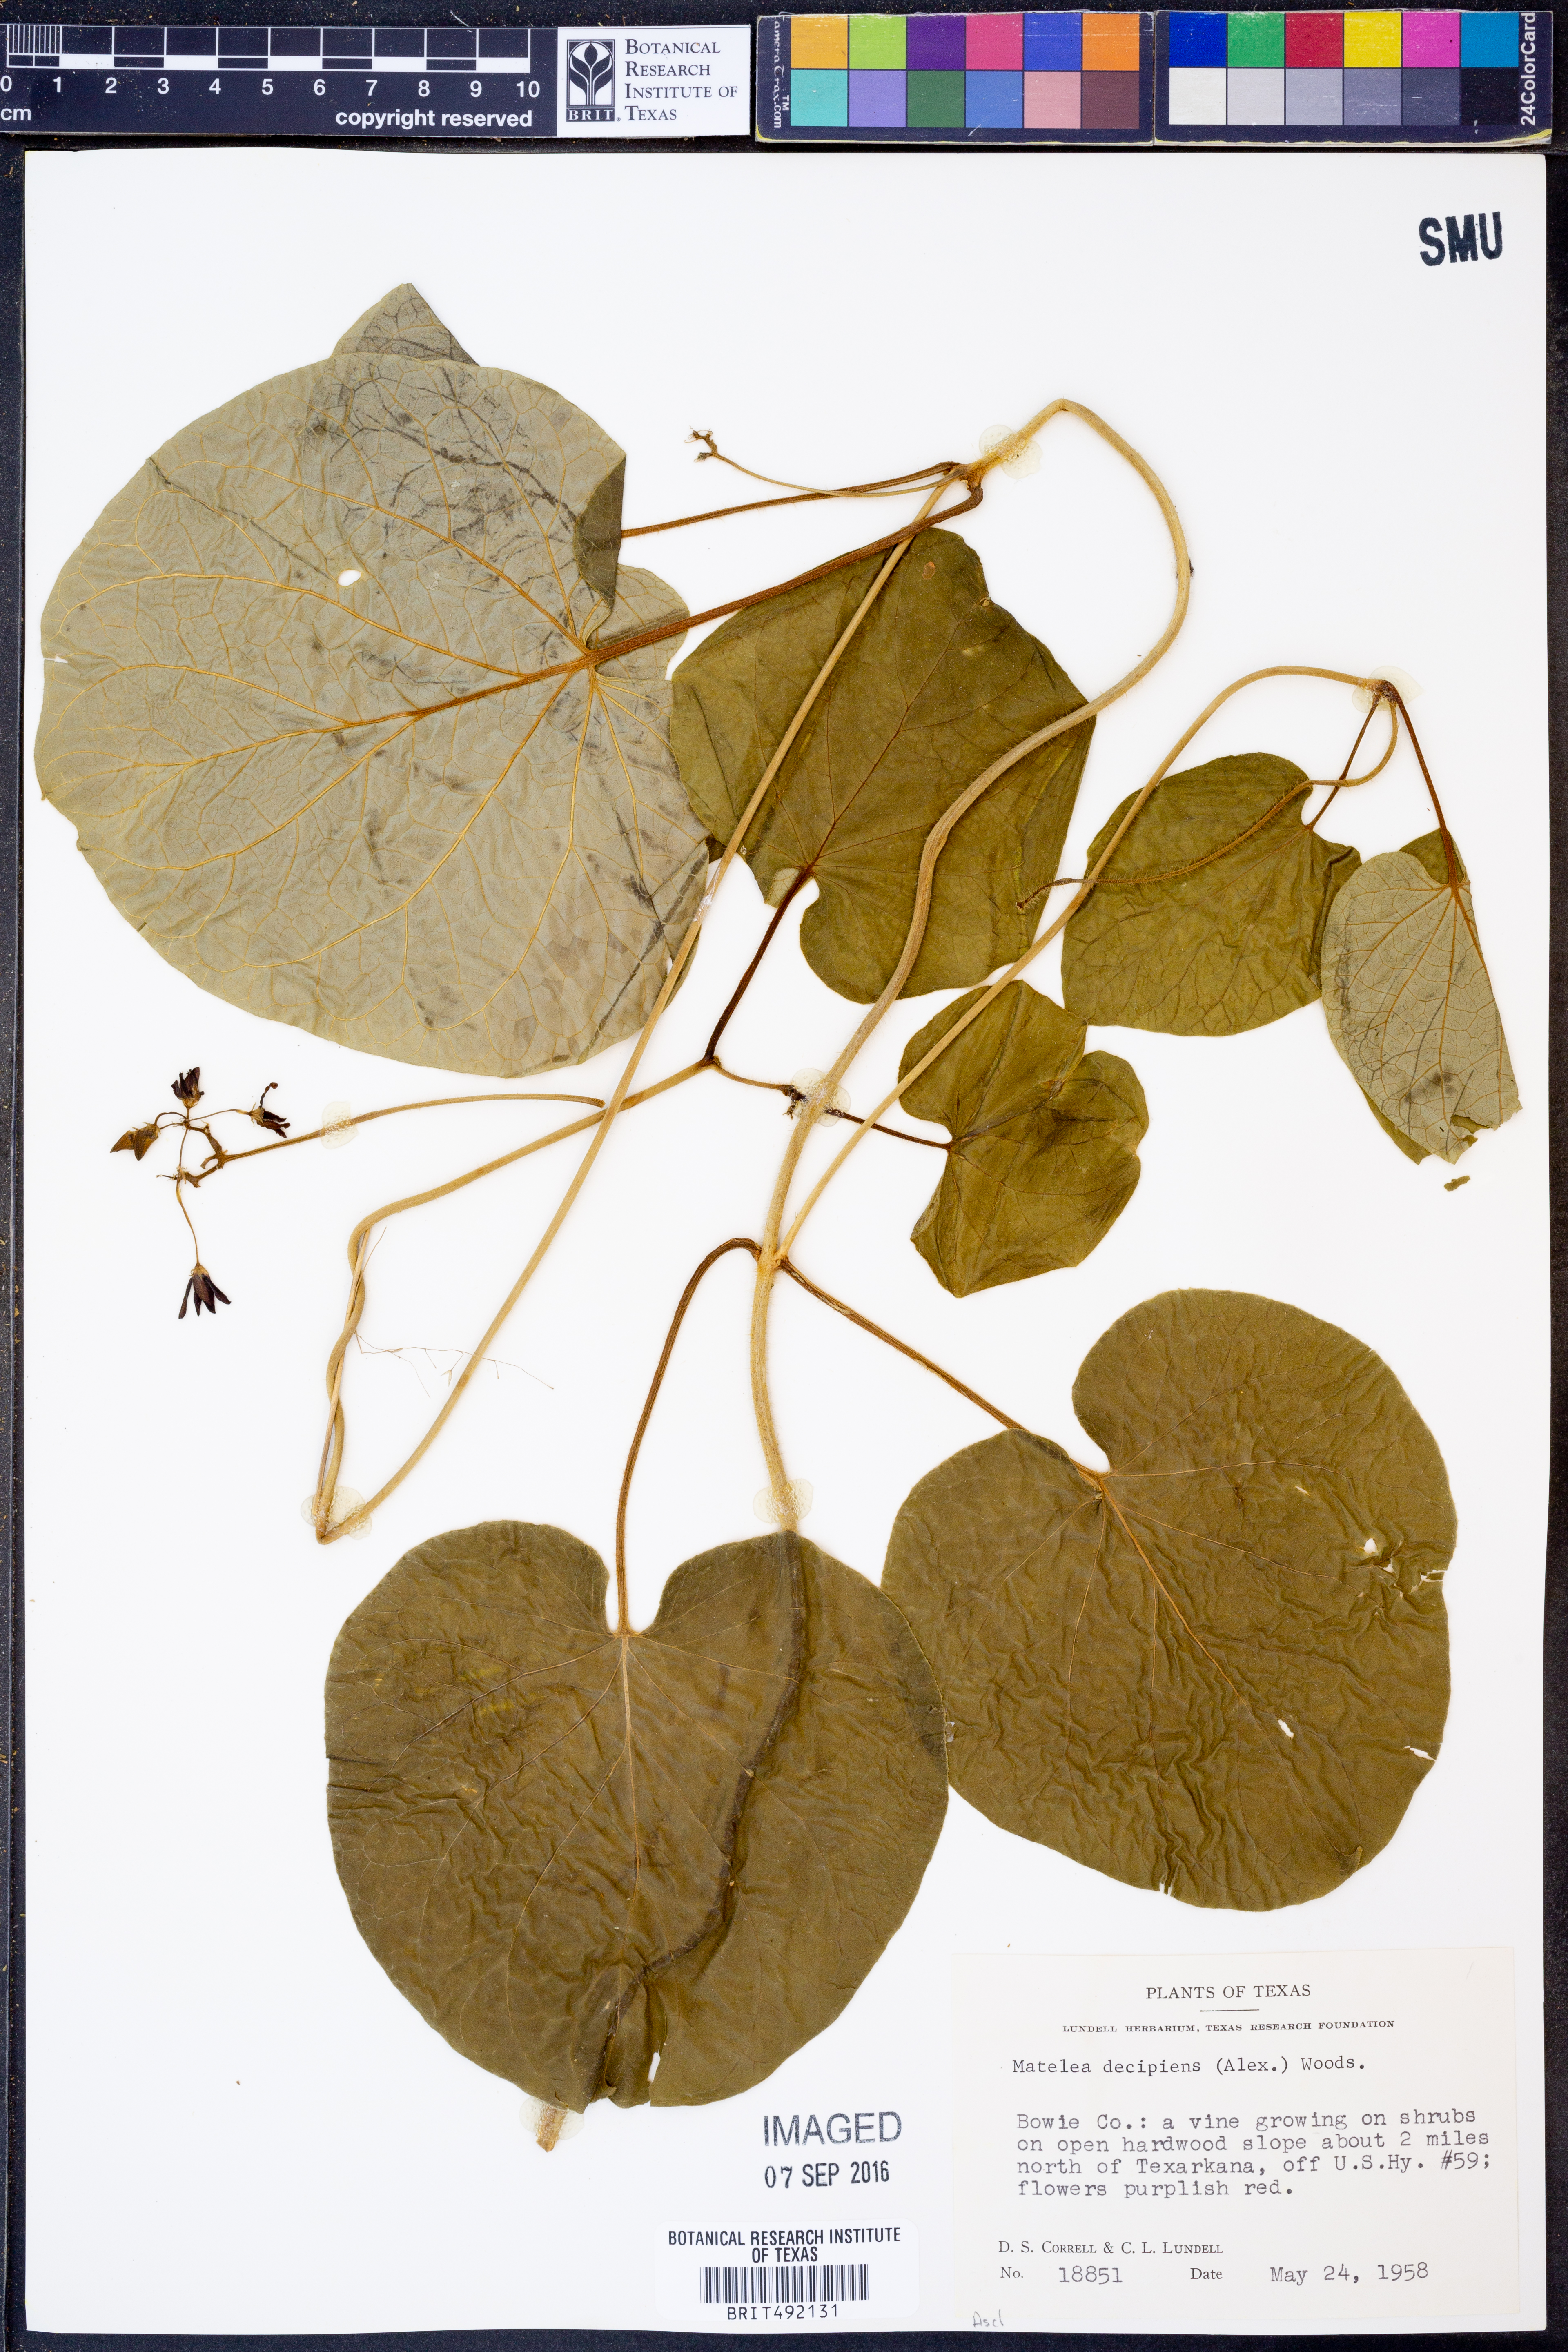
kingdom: Plantae
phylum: Tracheophyta
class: Magnoliopsida
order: Gentianales
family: Apocynaceae
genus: Matelea
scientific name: Matelea decipiens
